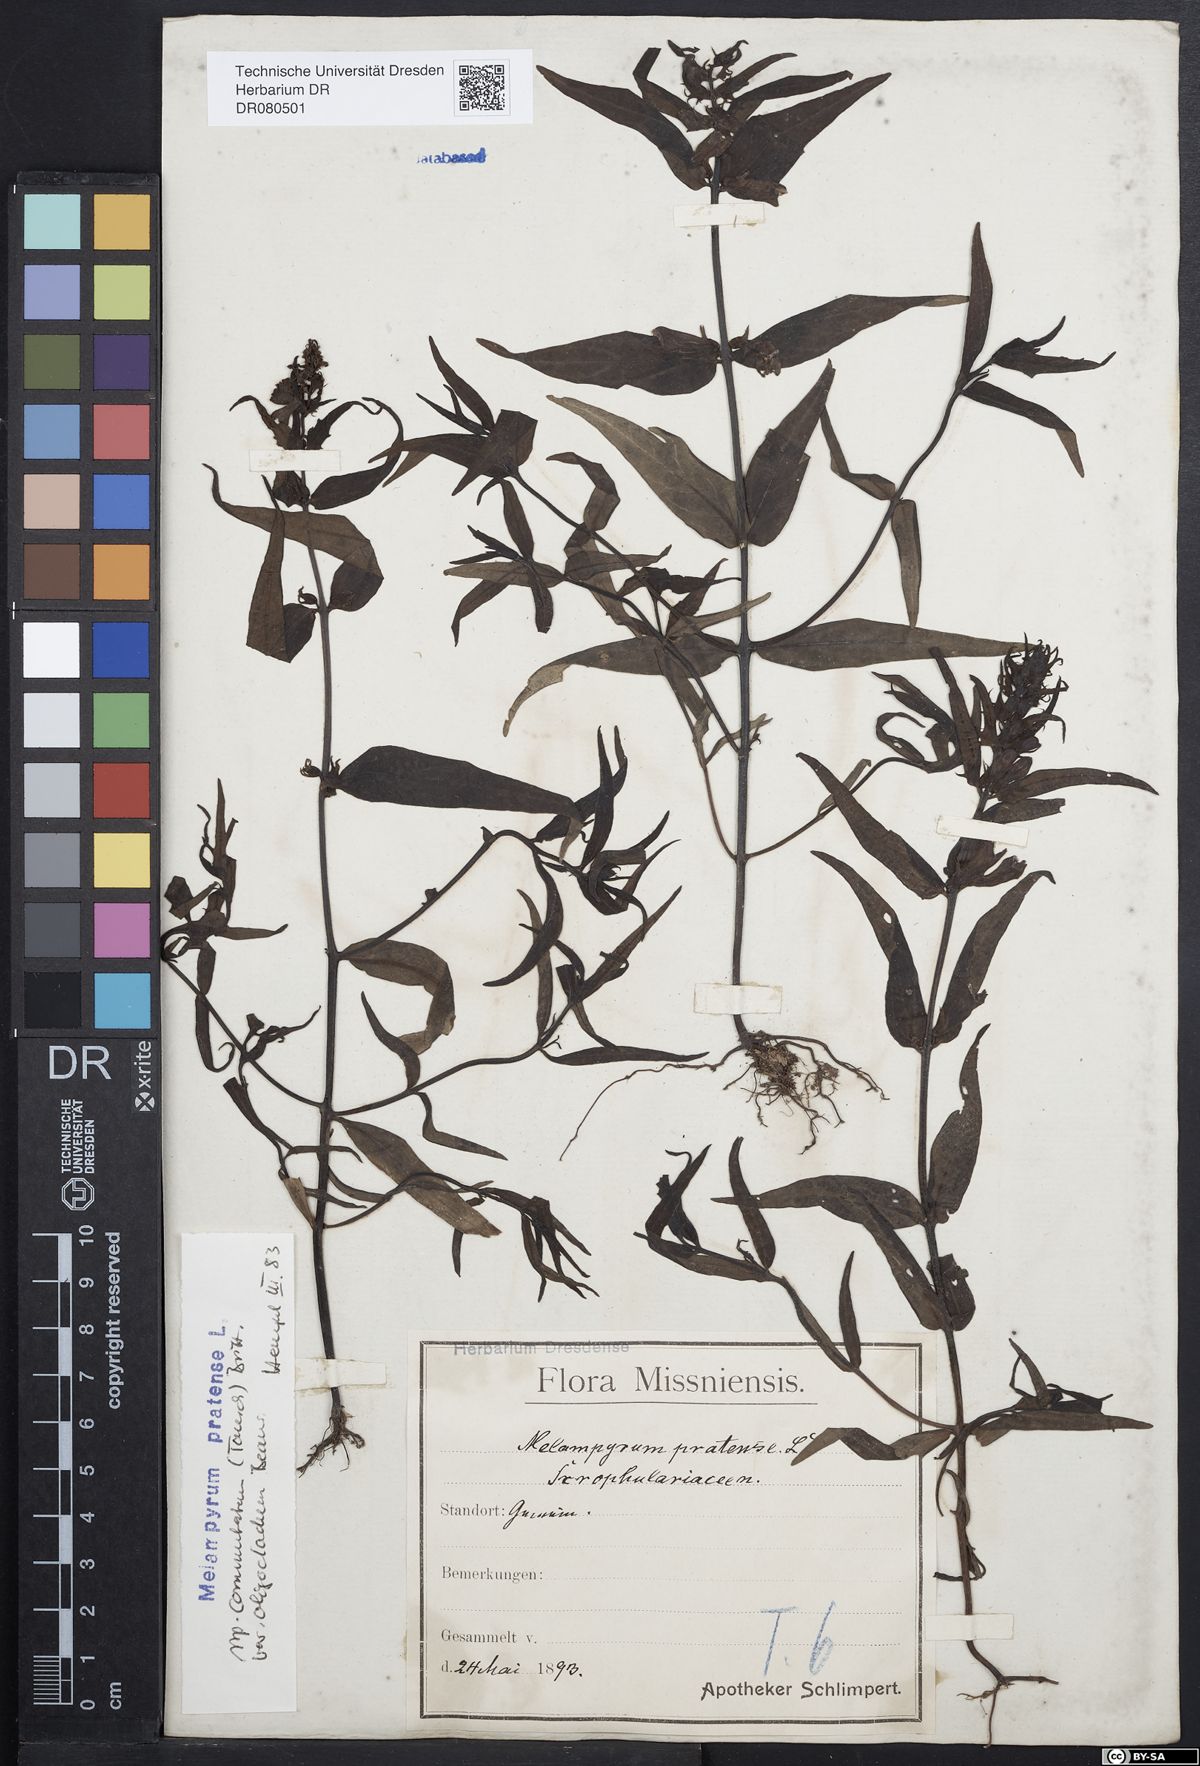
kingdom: Plantae
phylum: Tracheophyta
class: Magnoliopsida
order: Lamiales
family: Orobanchaceae
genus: Melampyrum
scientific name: Melampyrum pratense
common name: Common cow-wheat
